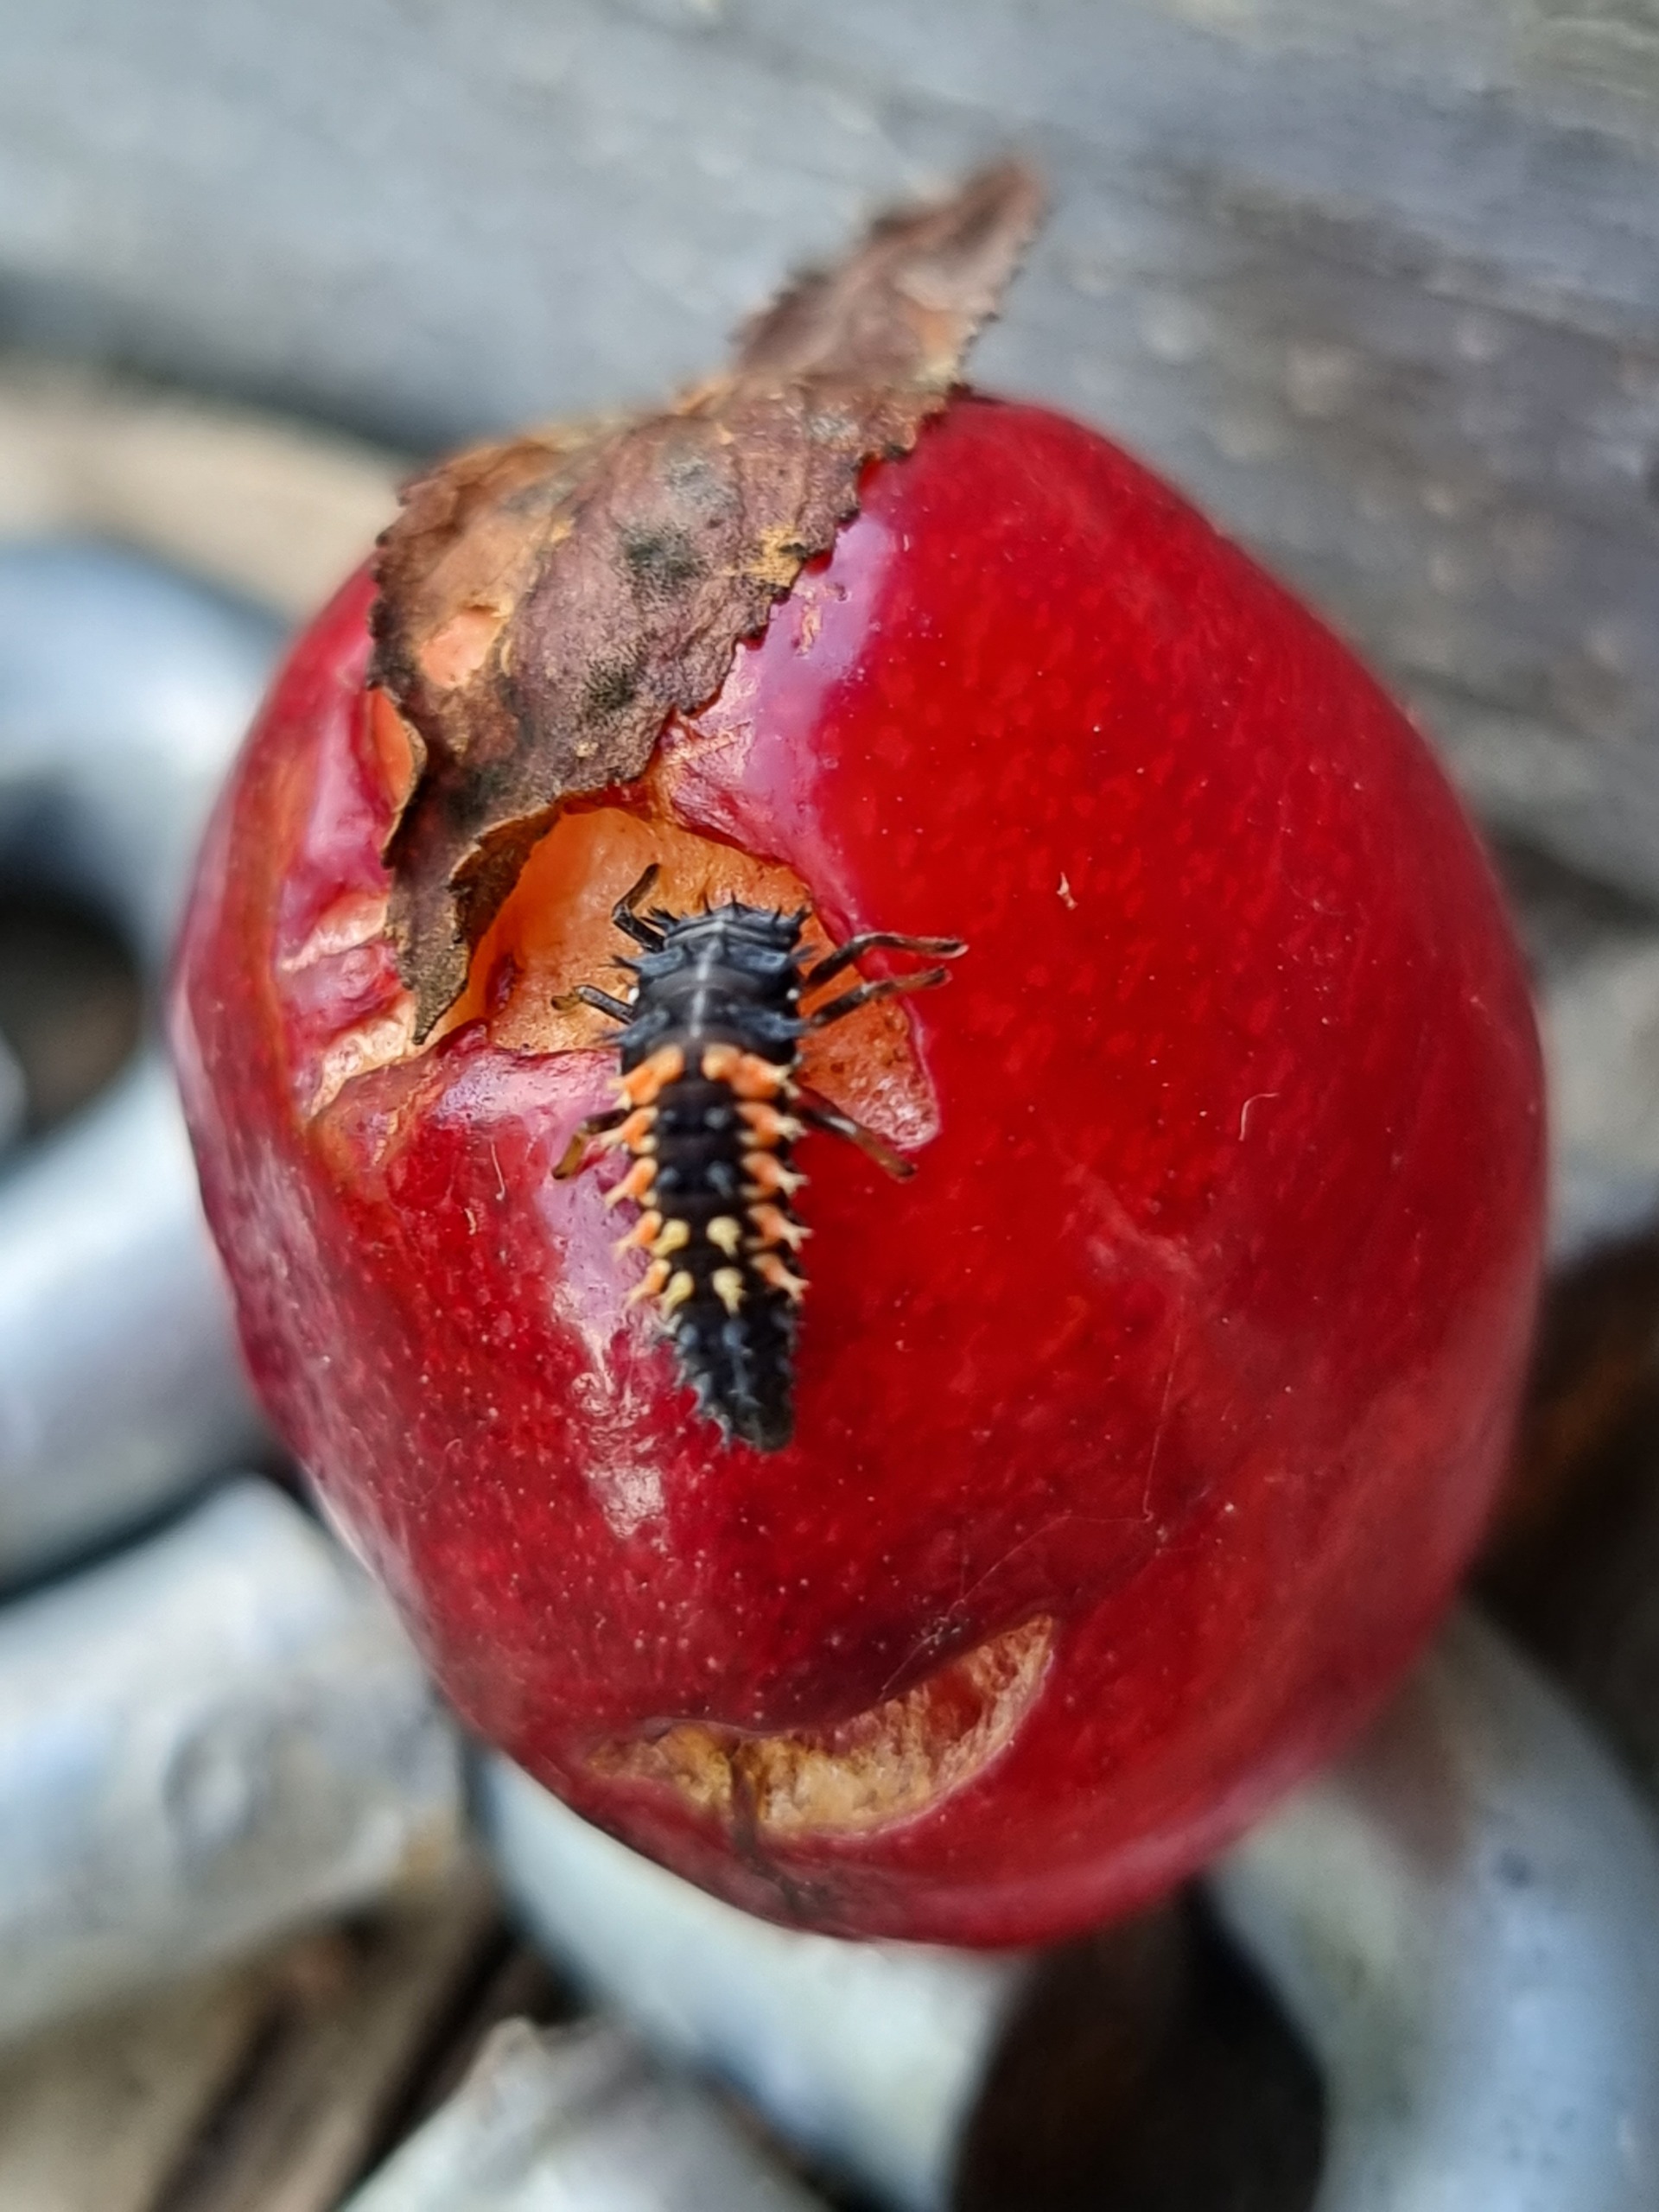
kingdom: Animalia
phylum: Arthropoda
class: Insecta
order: Coleoptera
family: Coccinellidae
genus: Harmonia
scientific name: Harmonia axyridis
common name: Harlekinmariehøne
